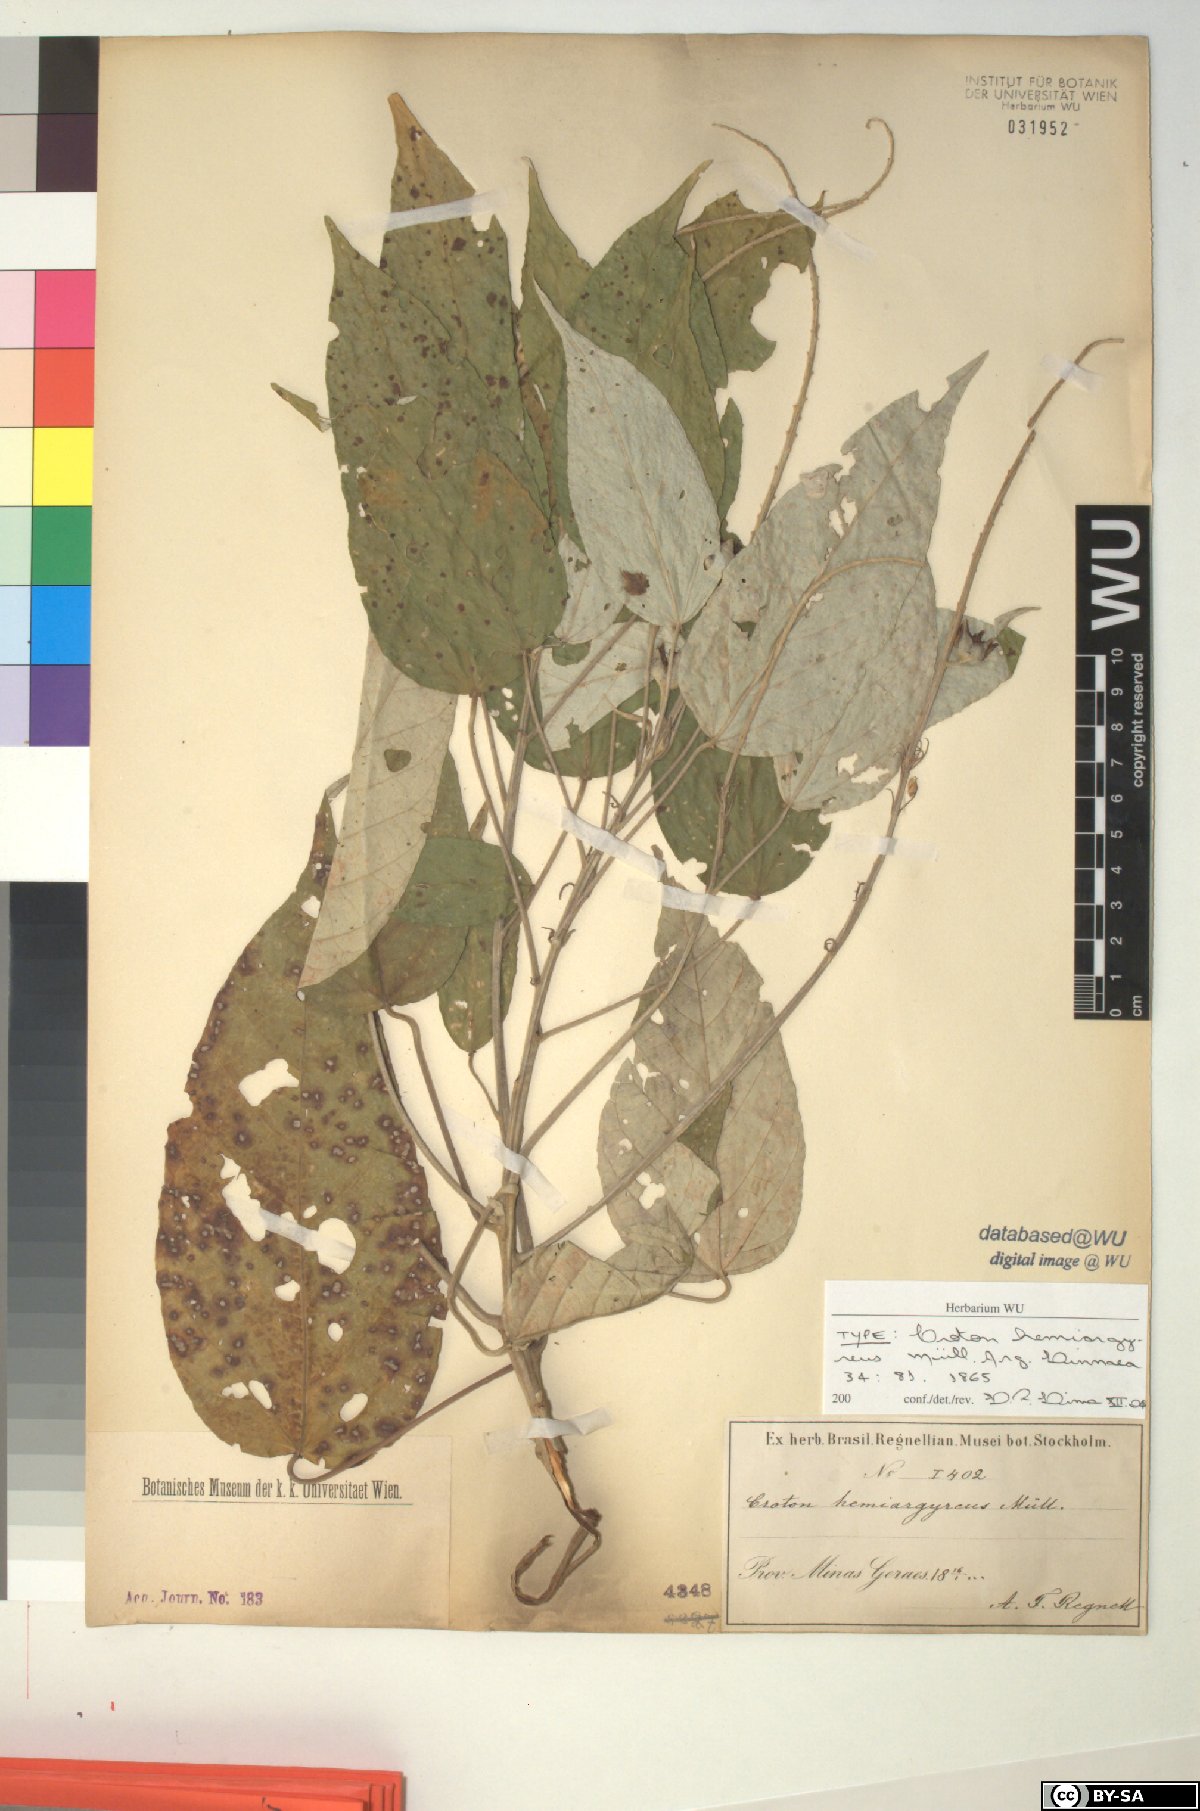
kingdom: Plantae
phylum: Tracheophyta
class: Magnoliopsida
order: Malpighiales
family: Euphorbiaceae
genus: Croton
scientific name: Croton hemiargyreus
